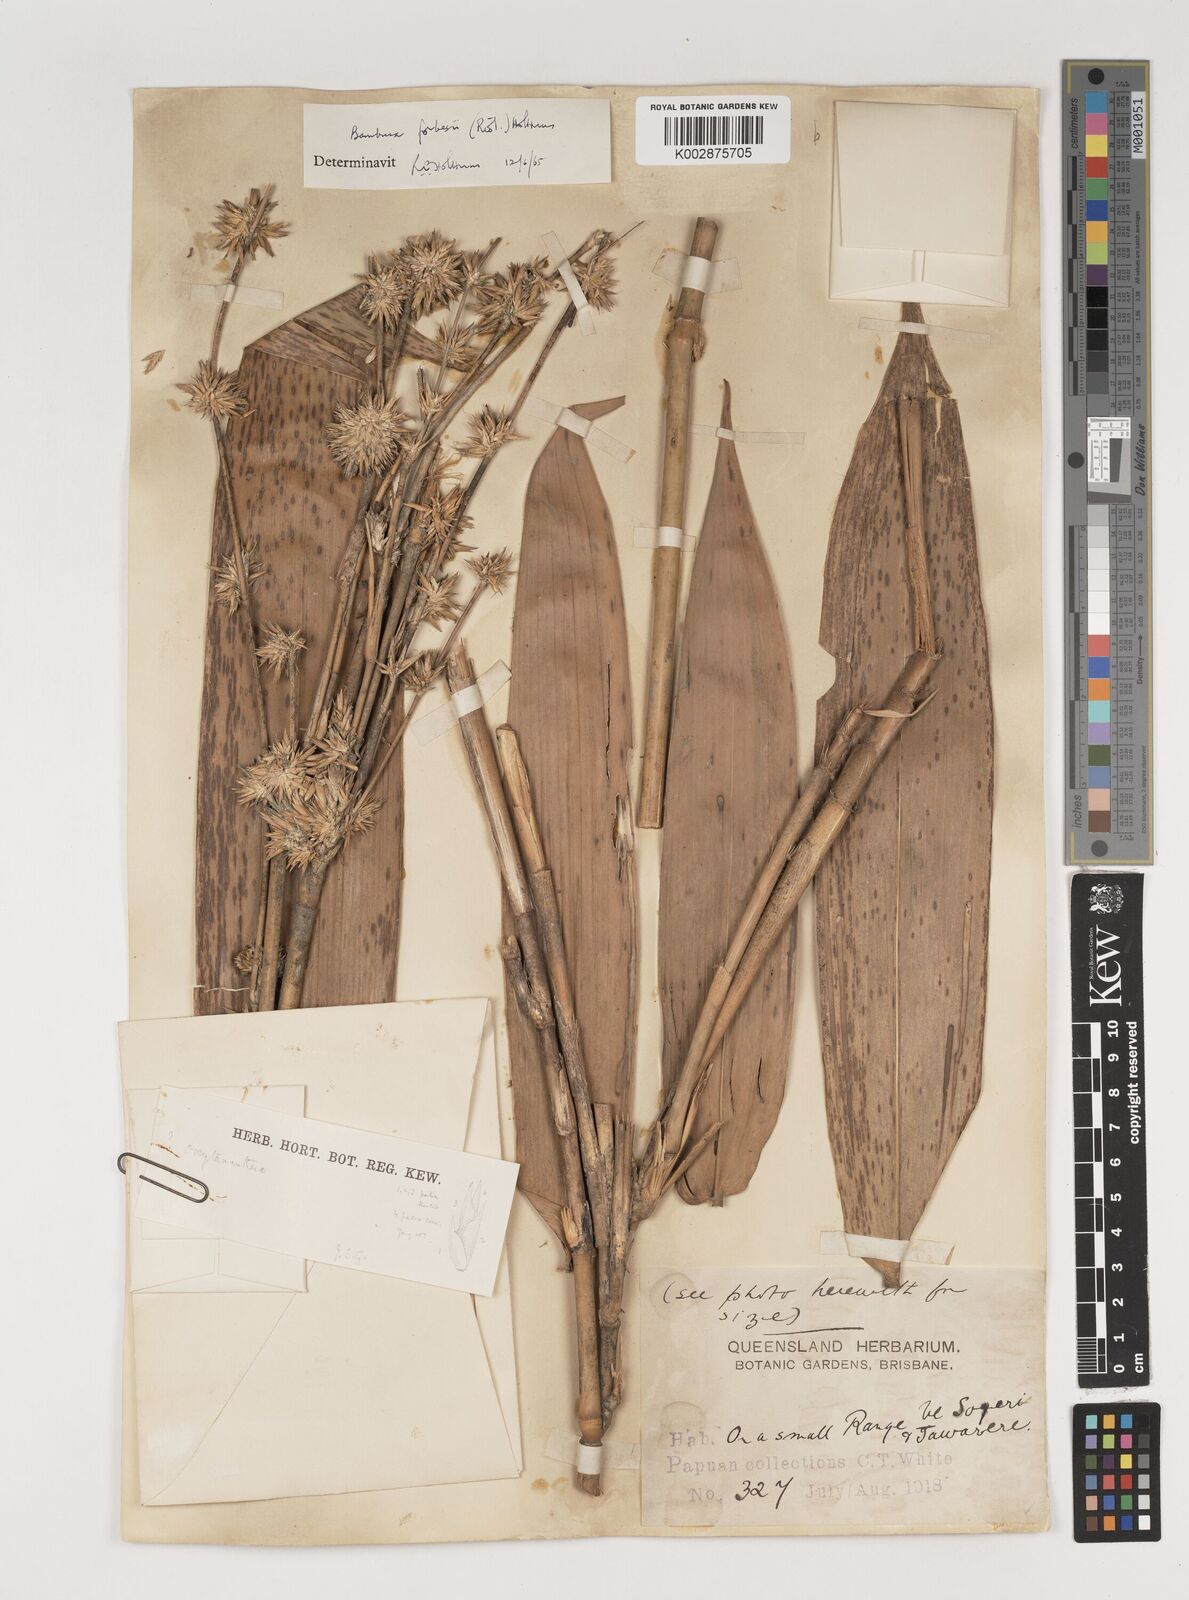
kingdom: Plantae
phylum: Tracheophyta
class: Liliopsida
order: Poales
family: Poaceae
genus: Neololeba
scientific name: Neololeba atra
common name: Cape bamboo
